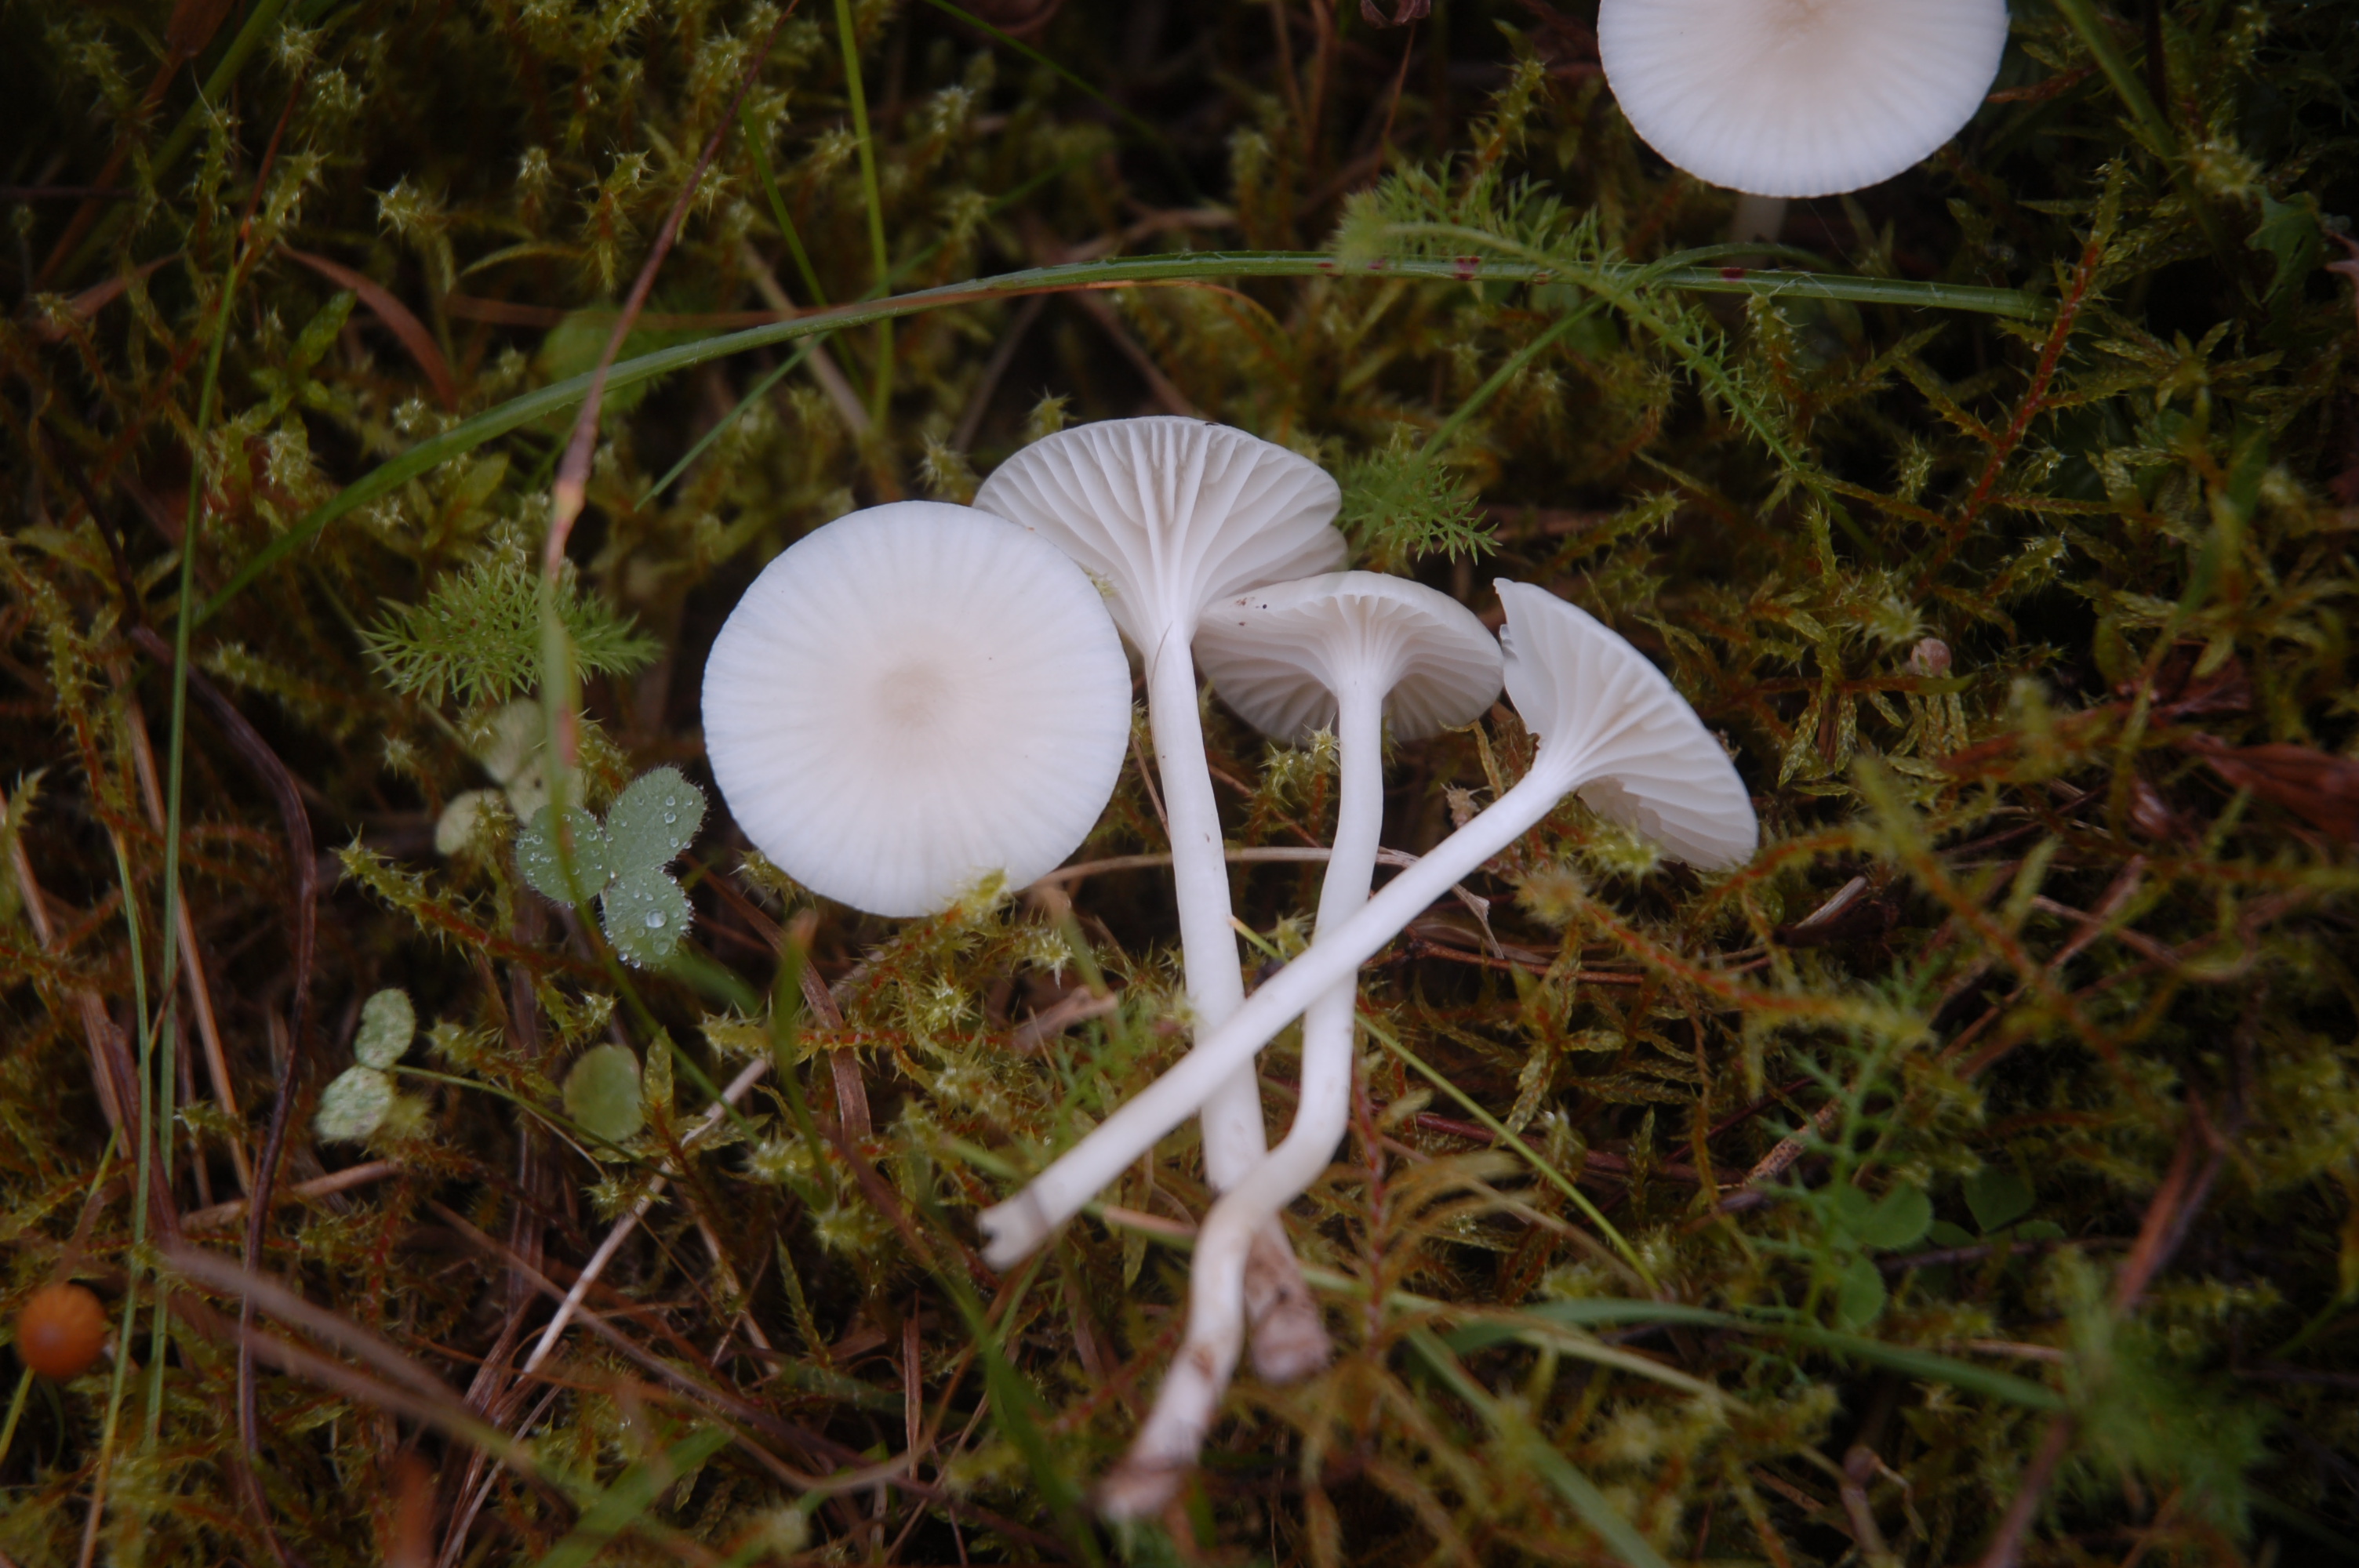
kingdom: Fungi
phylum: Basidiomycota
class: Agaricomycetes
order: Agaricales
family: Hygrophoraceae
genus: Cuphophyllus
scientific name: Cuphophyllus virgineus
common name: Snowy waxcap
